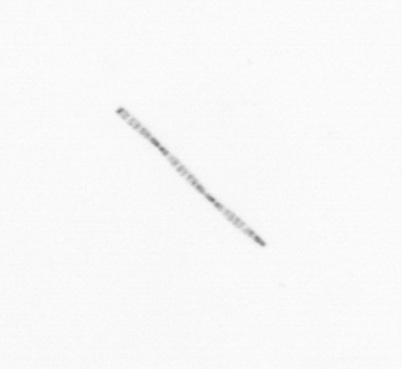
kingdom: Chromista
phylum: Ochrophyta
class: Bacillariophyceae
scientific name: Bacillariophyceae
